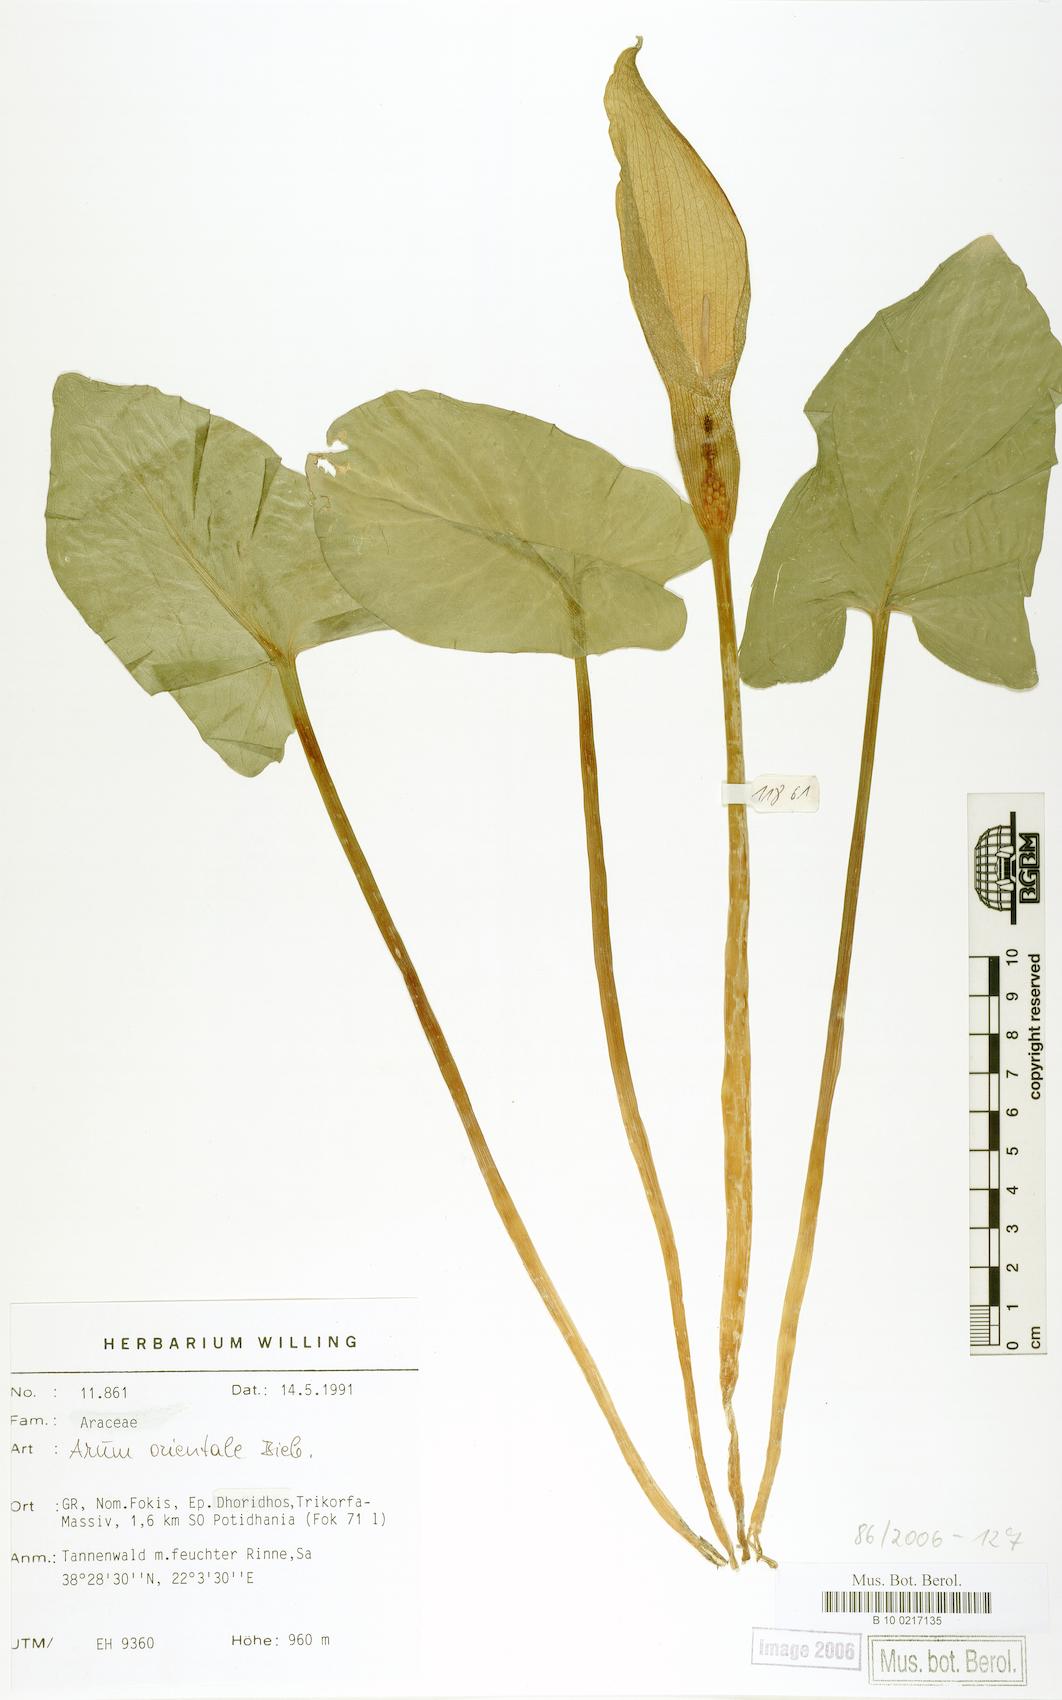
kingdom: Plantae
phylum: Tracheophyta
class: Liliopsida
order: Alismatales
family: Araceae
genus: Arum
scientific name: Arum orientale
